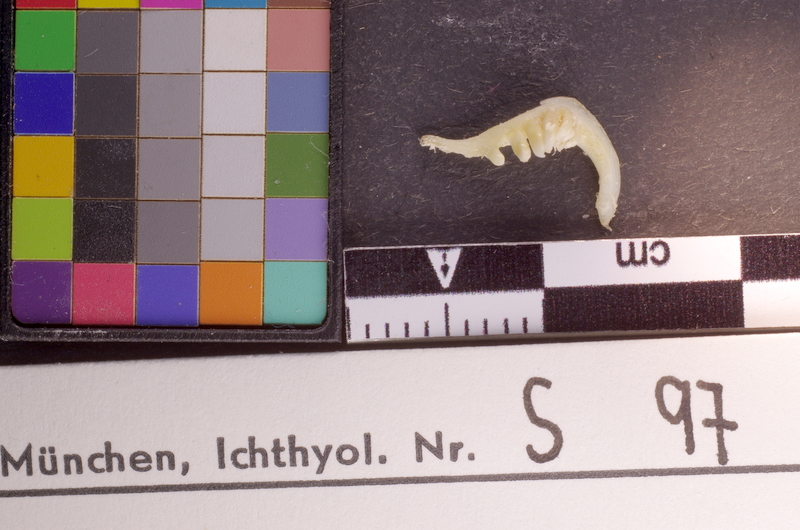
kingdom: Animalia
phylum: Chordata
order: Cypriniformes
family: Cyprinidae
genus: Barbodes
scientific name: Barbodes everetti
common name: Clown barb
